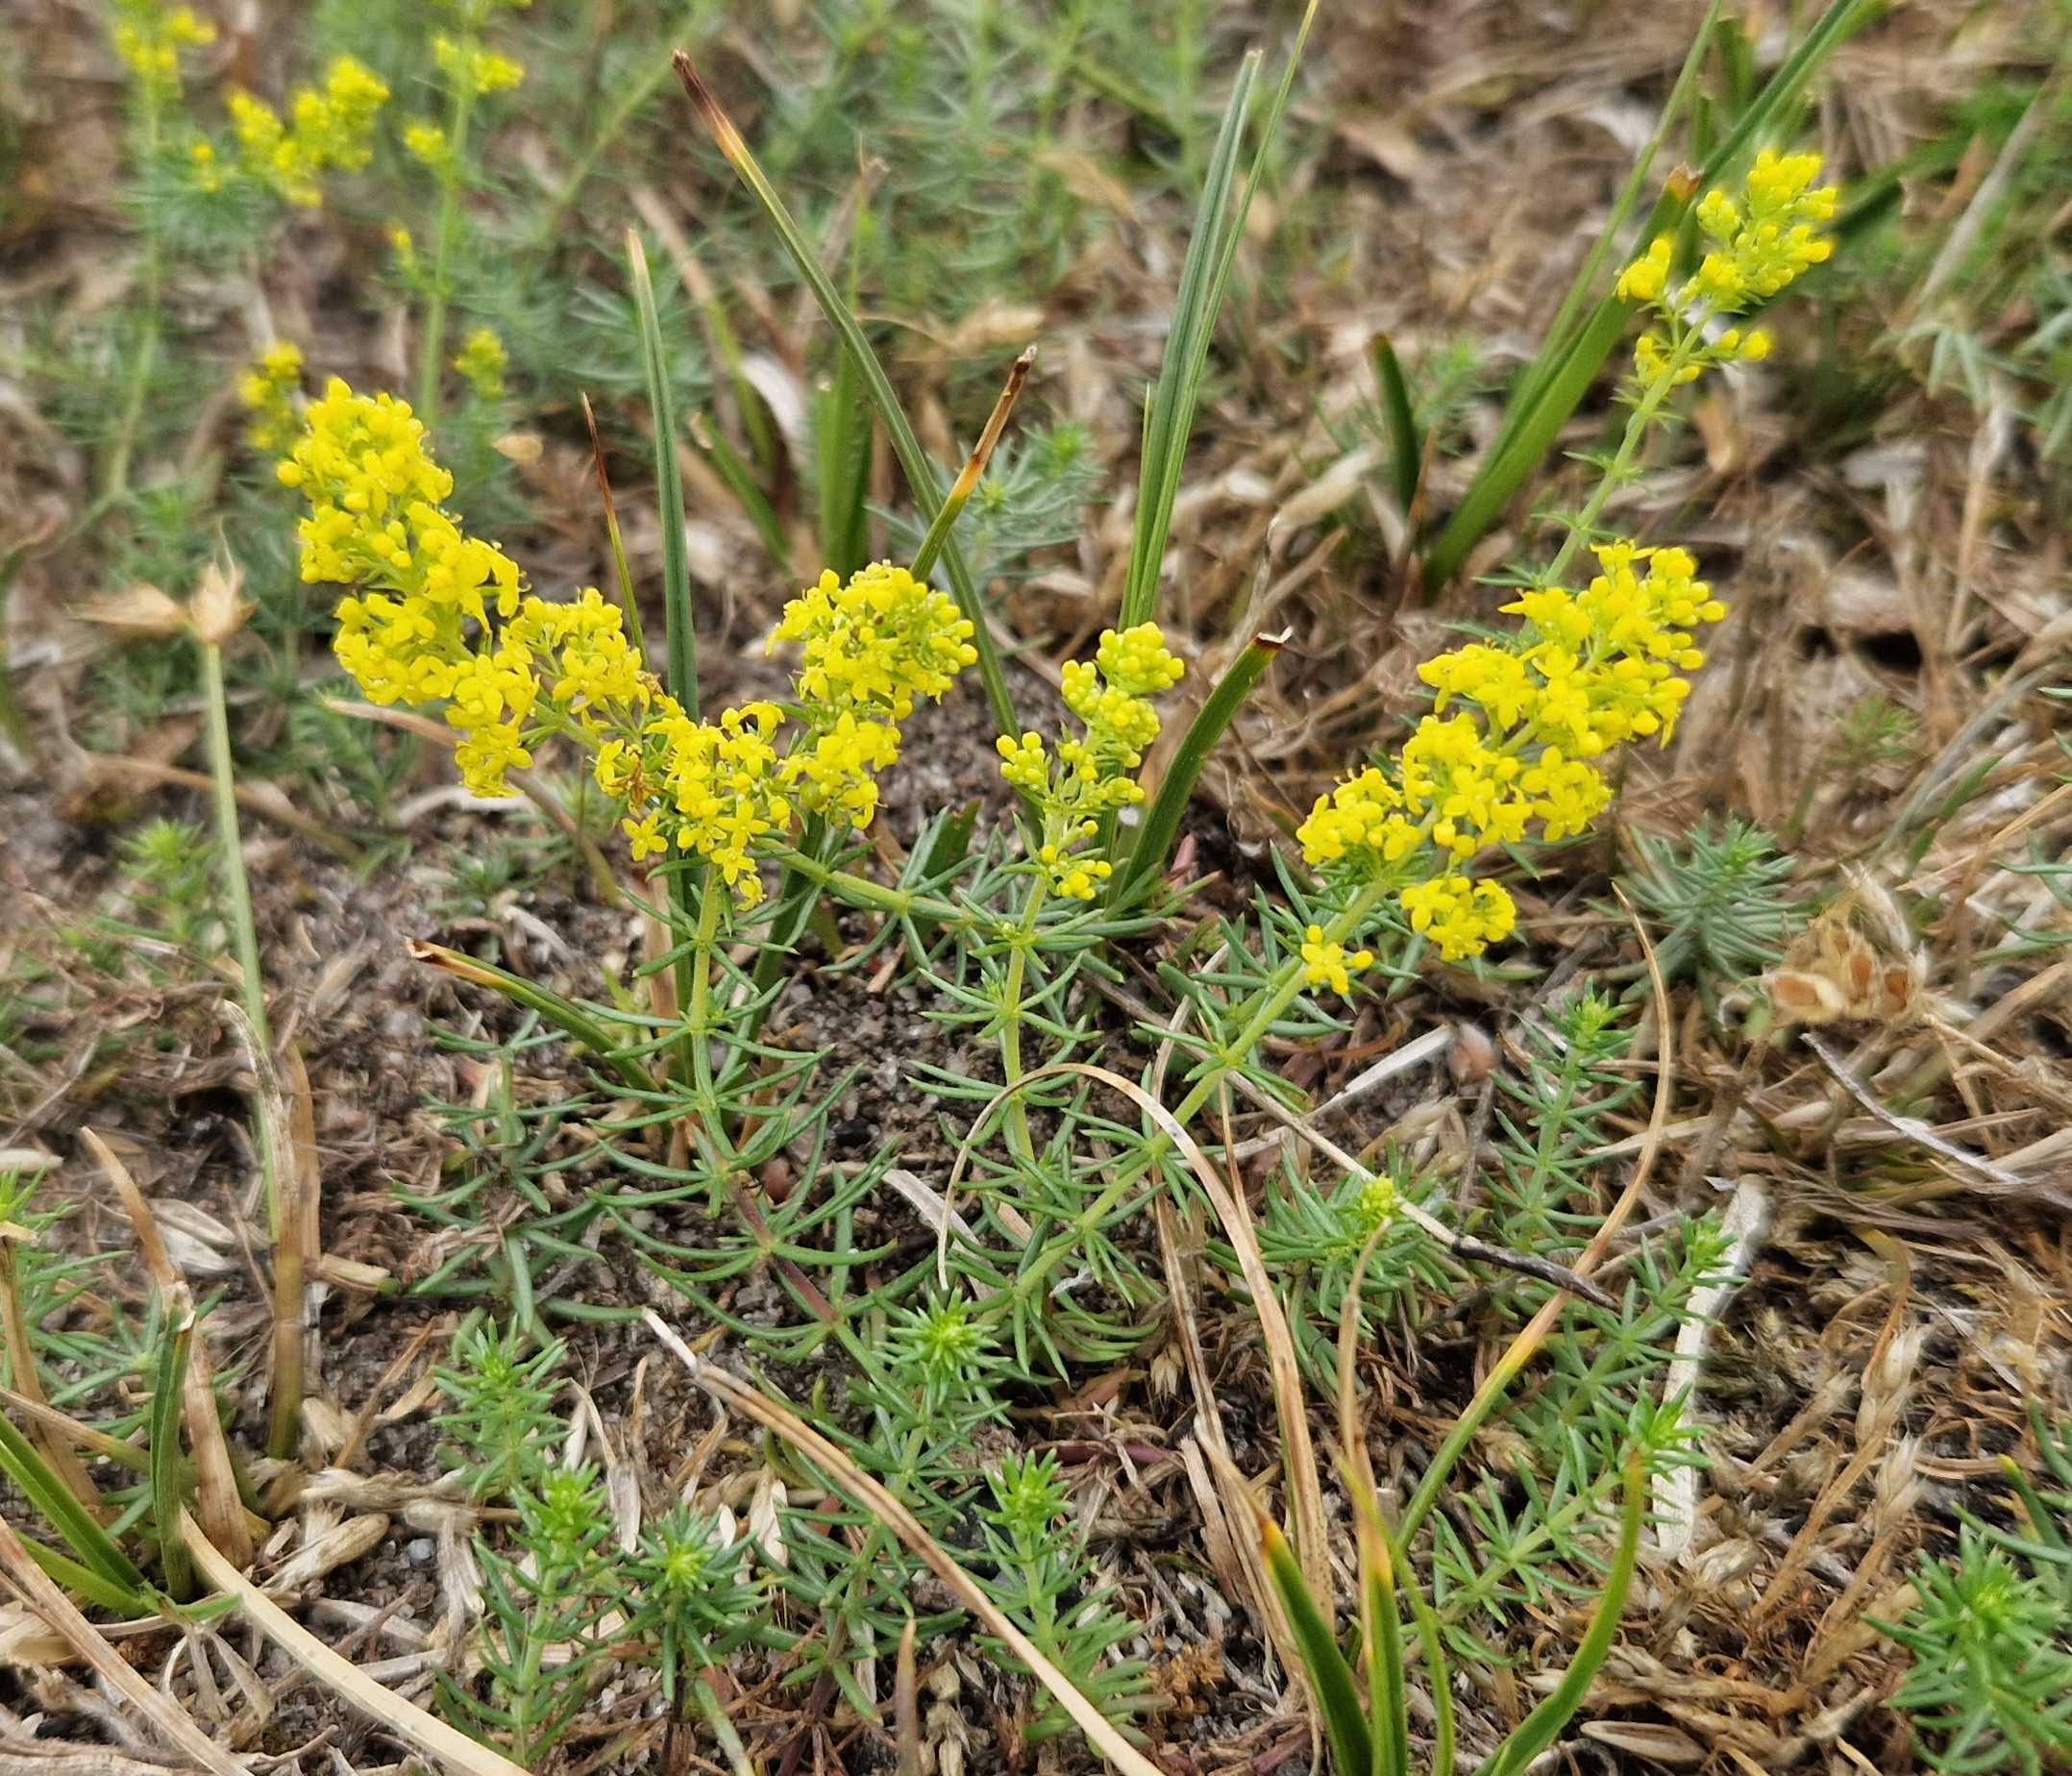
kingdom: Plantae
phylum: Tracheophyta
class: Magnoliopsida
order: Gentianales
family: Rubiaceae
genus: Galium
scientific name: Galium verum
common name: Gul snerre
